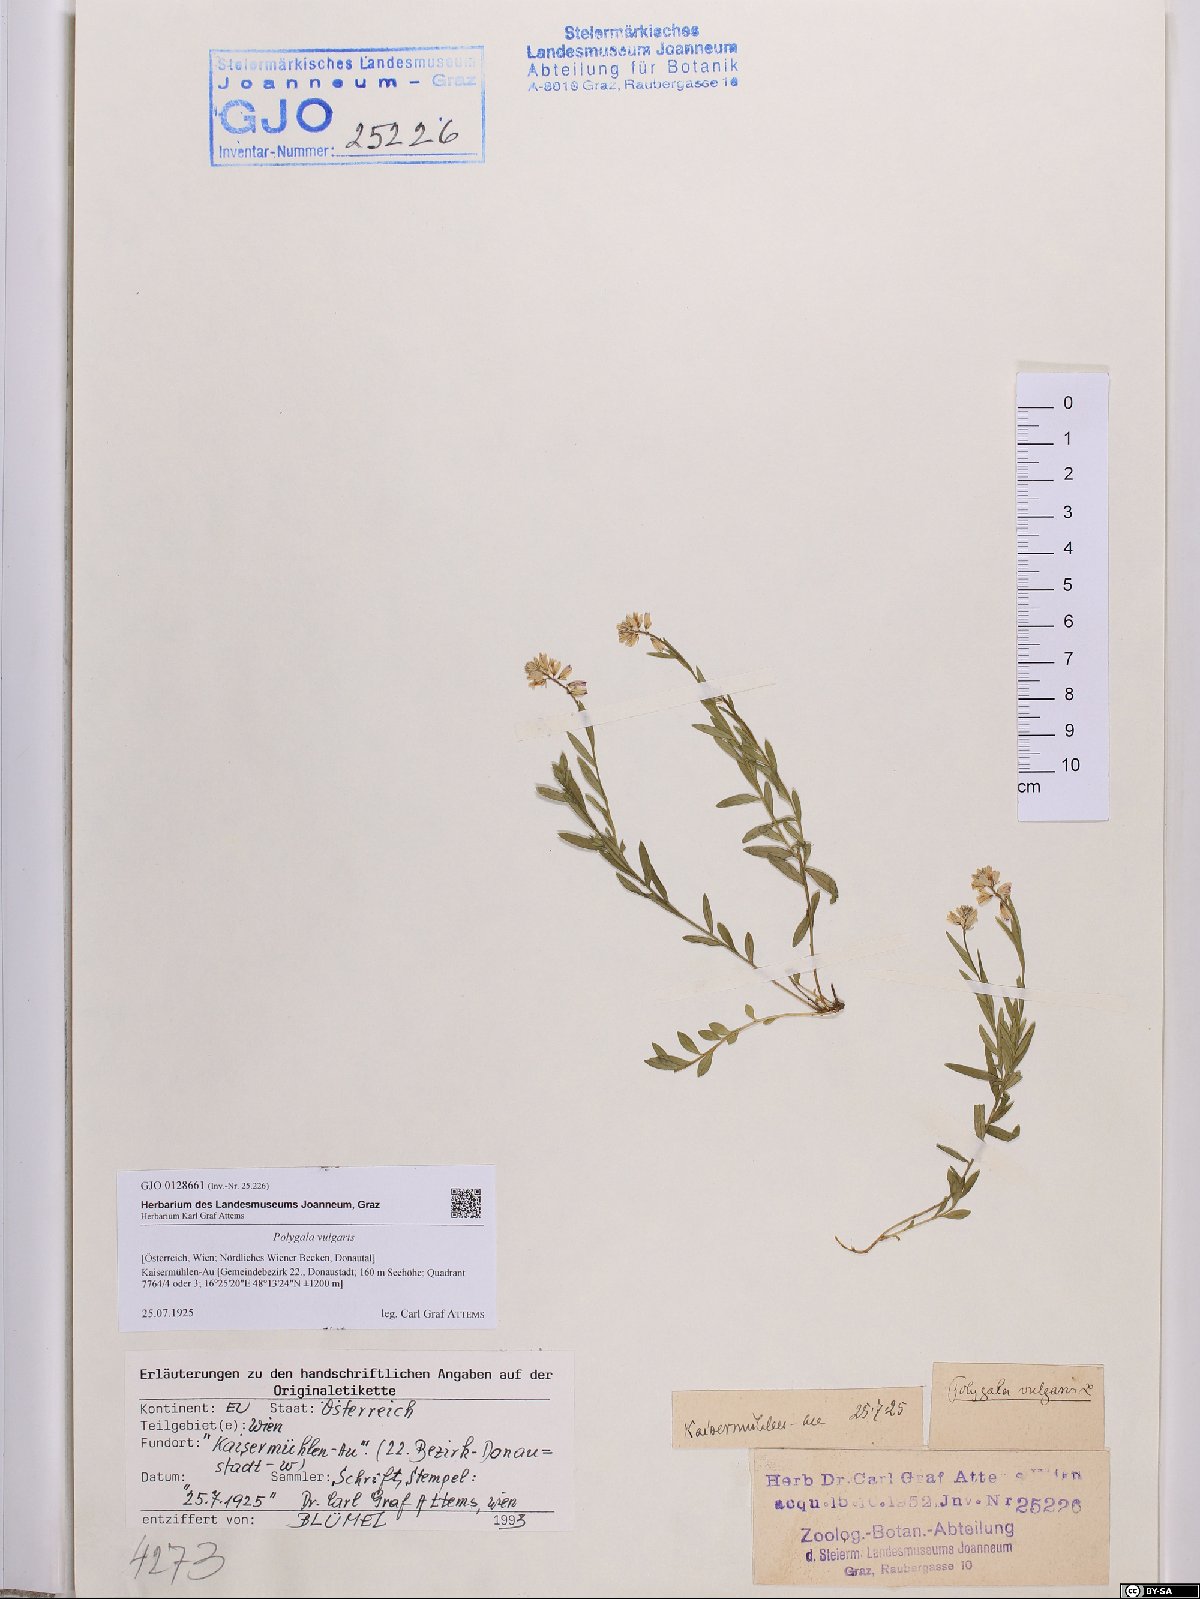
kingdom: Plantae
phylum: Tracheophyta
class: Magnoliopsida
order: Fabales
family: Polygalaceae
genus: Polygala
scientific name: Polygala vulgaris
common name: Common milkwort
